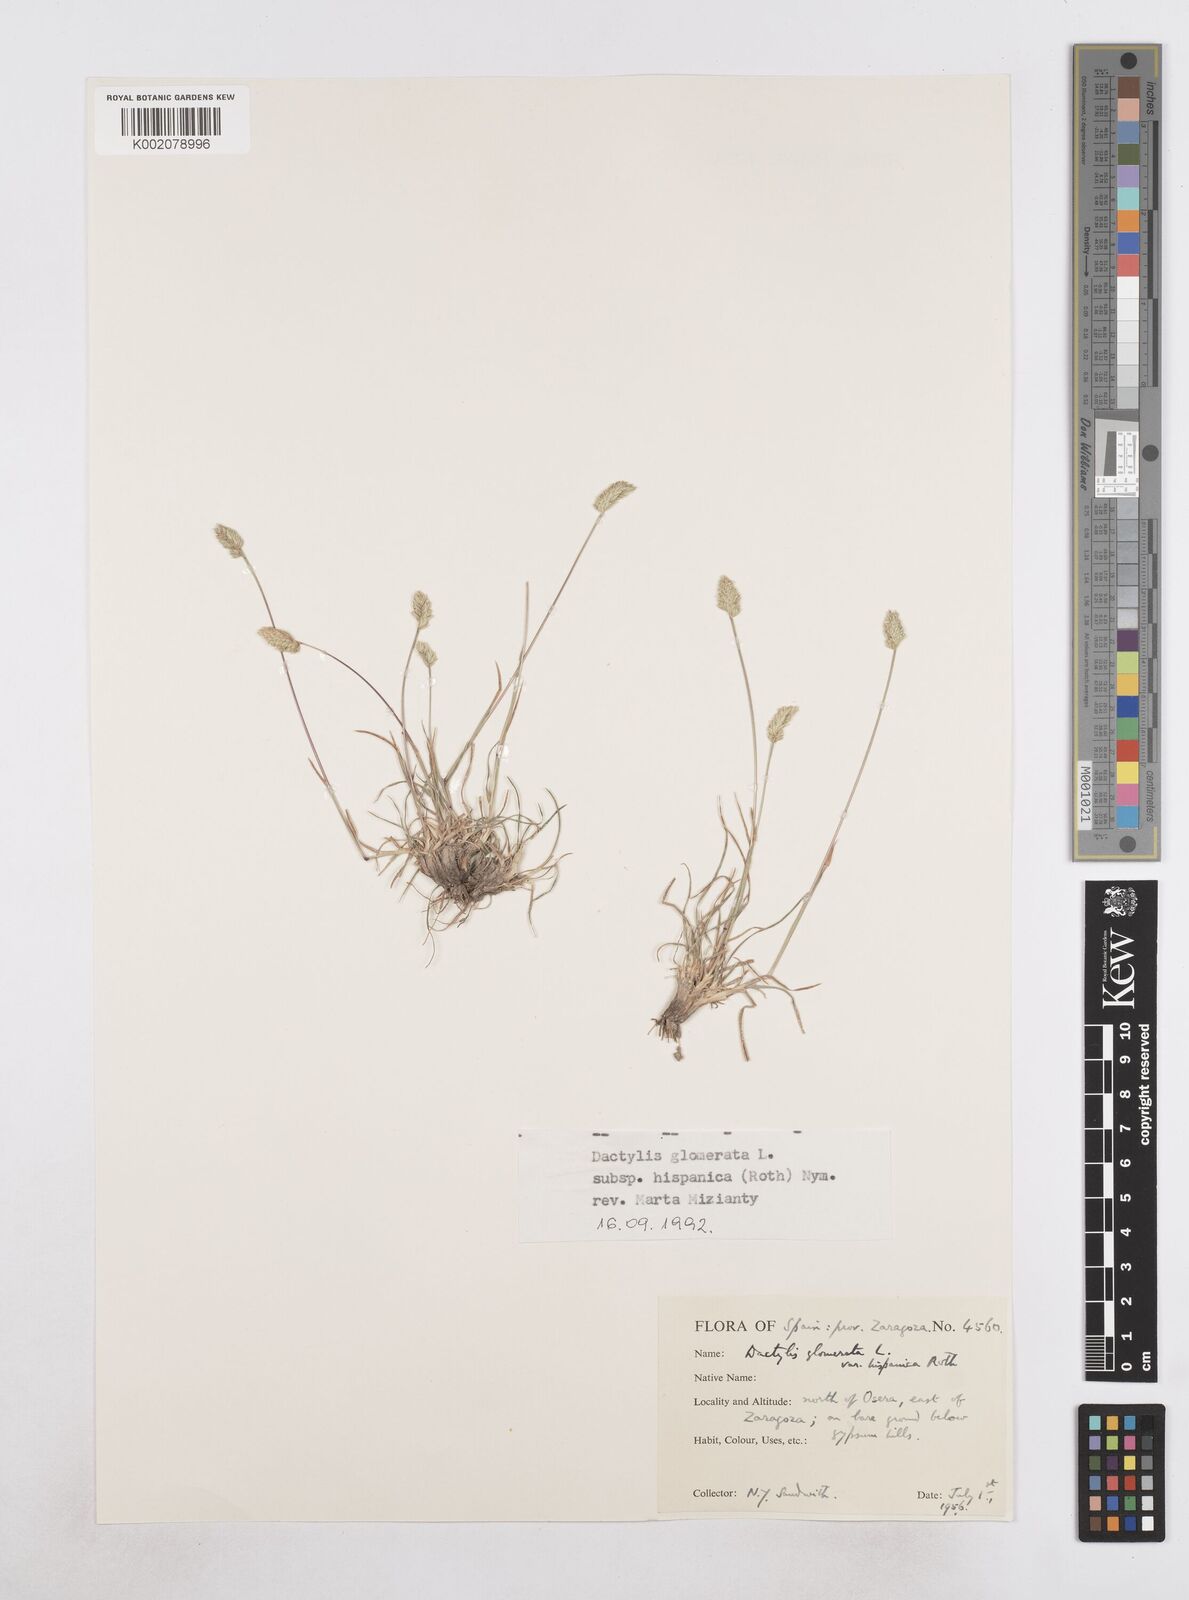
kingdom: Plantae
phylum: Tracheophyta
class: Liliopsida
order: Poales
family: Poaceae
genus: Dactylis
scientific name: Dactylis glomerata
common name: Orchardgrass
